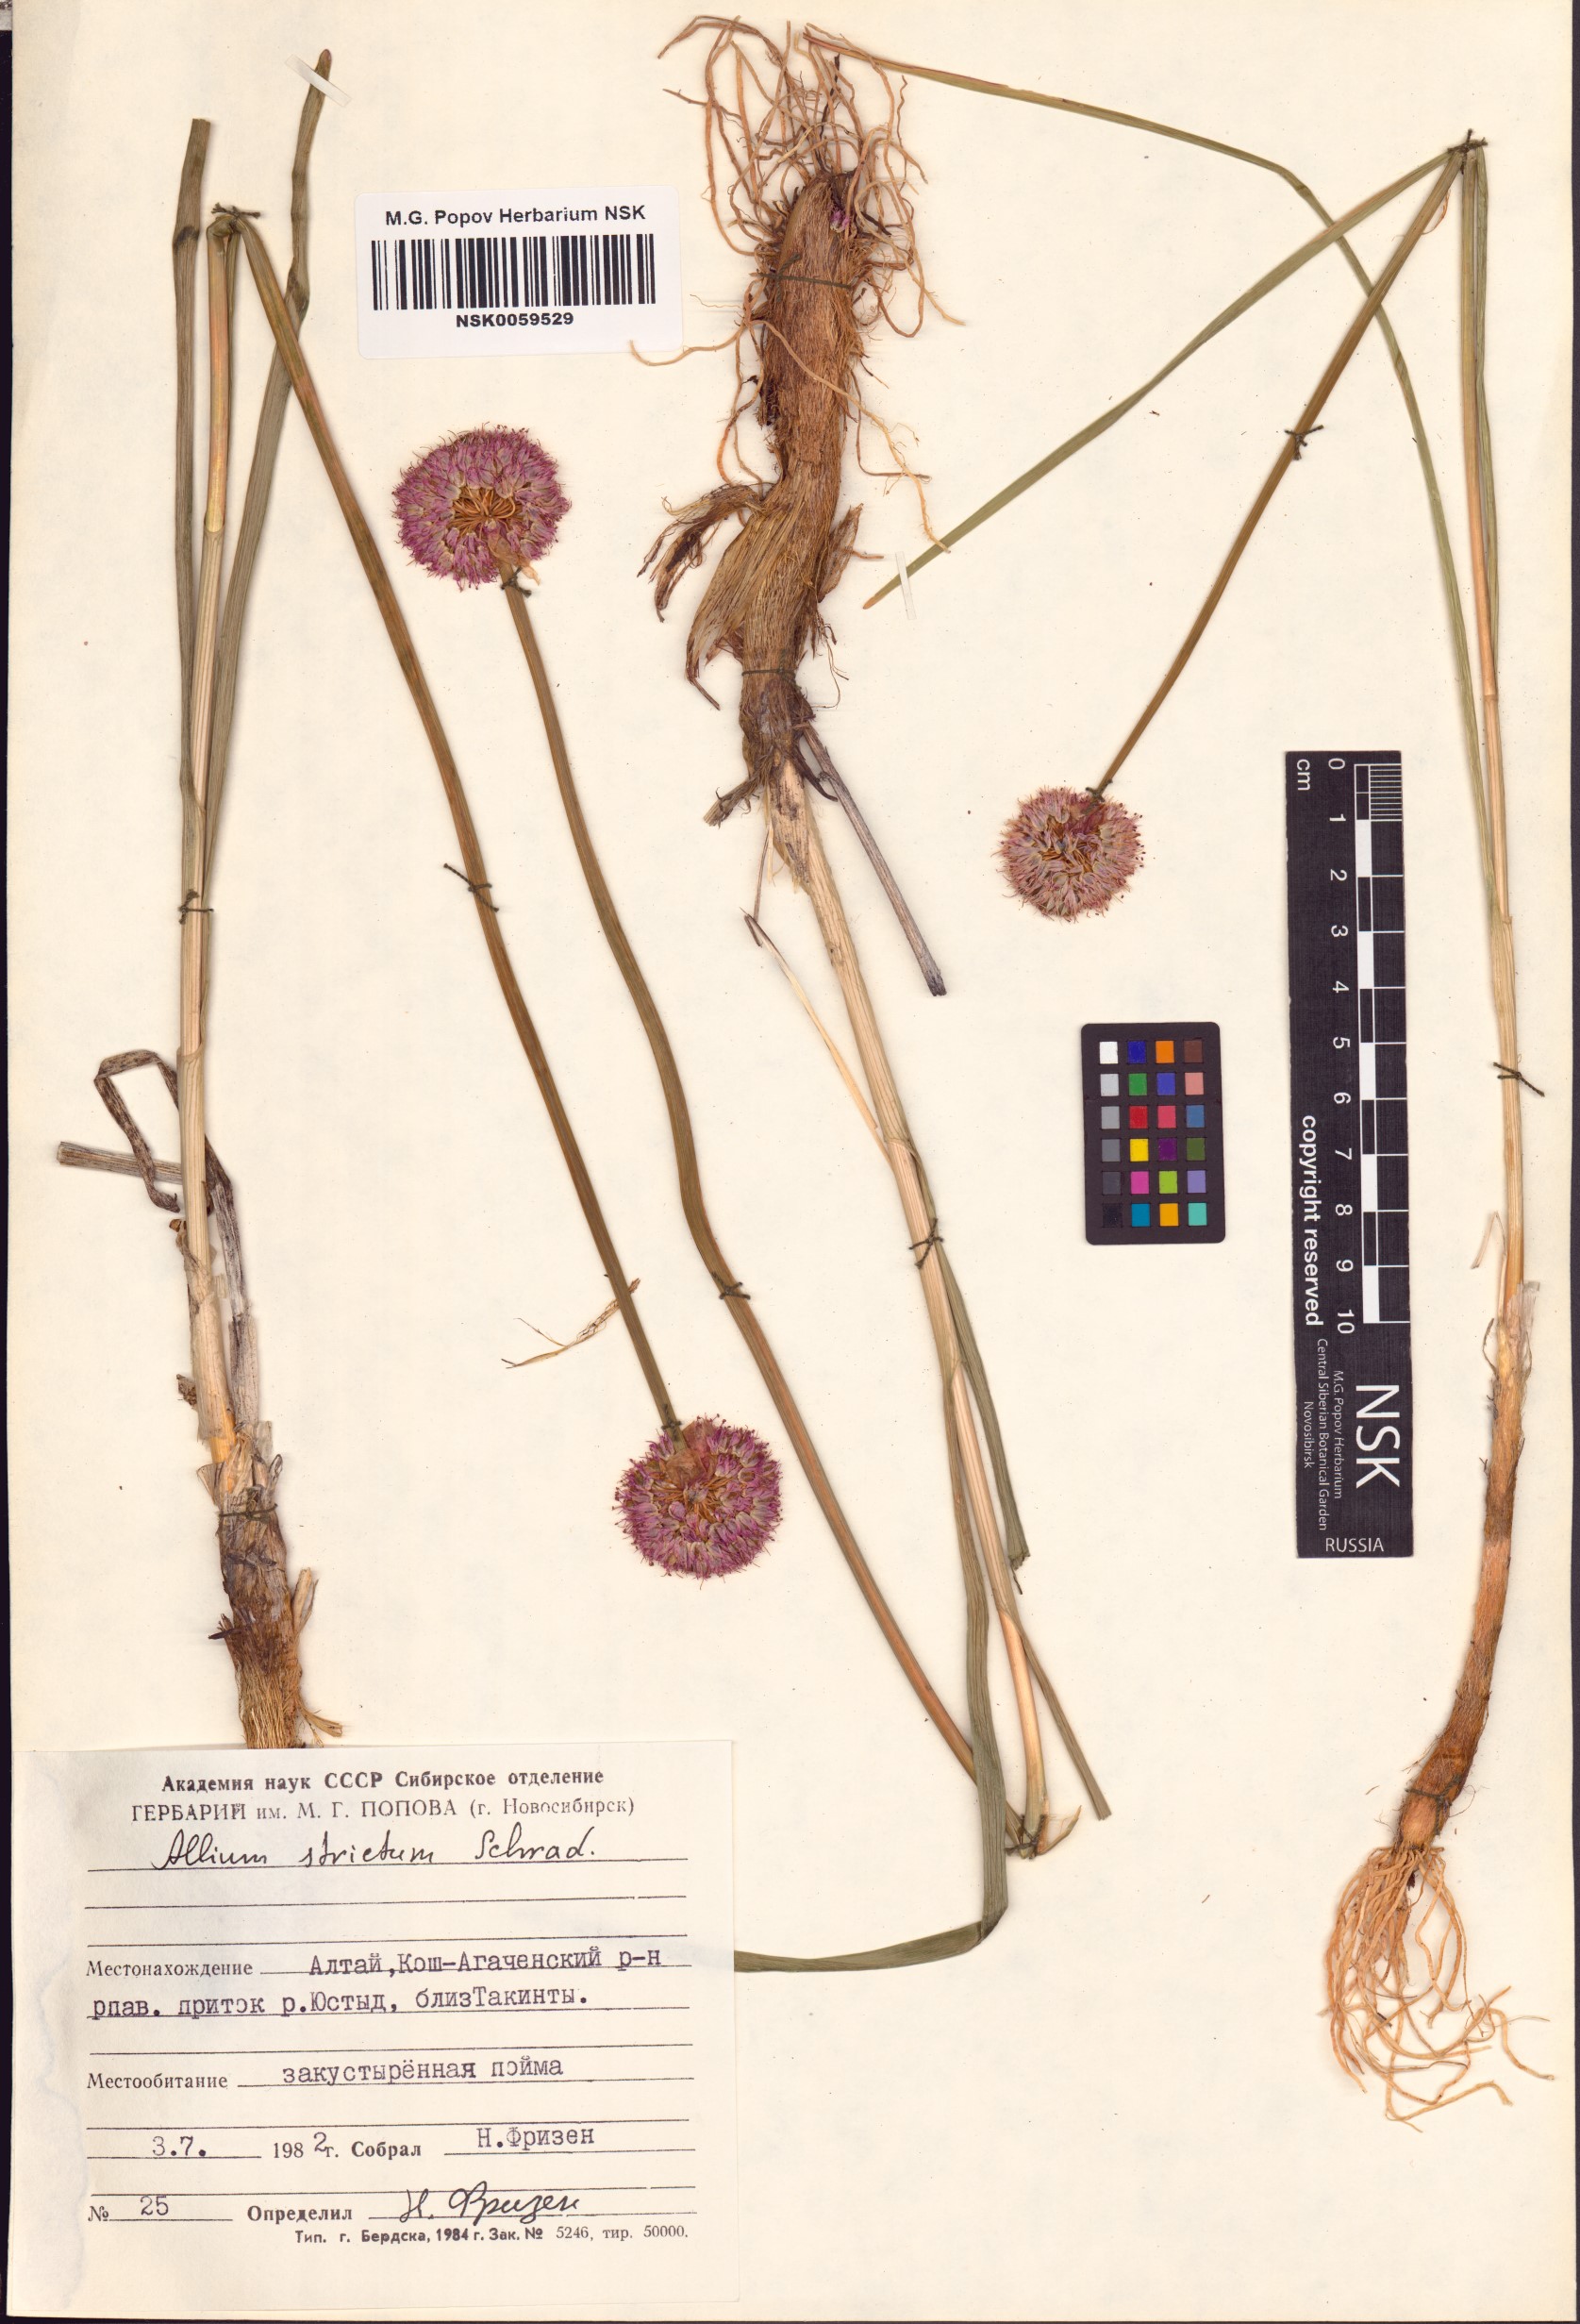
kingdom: Plantae
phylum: Tracheophyta
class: Liliopsida
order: Asparagales
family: Amaryllidaceae
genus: Allium
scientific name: Allium strictum
